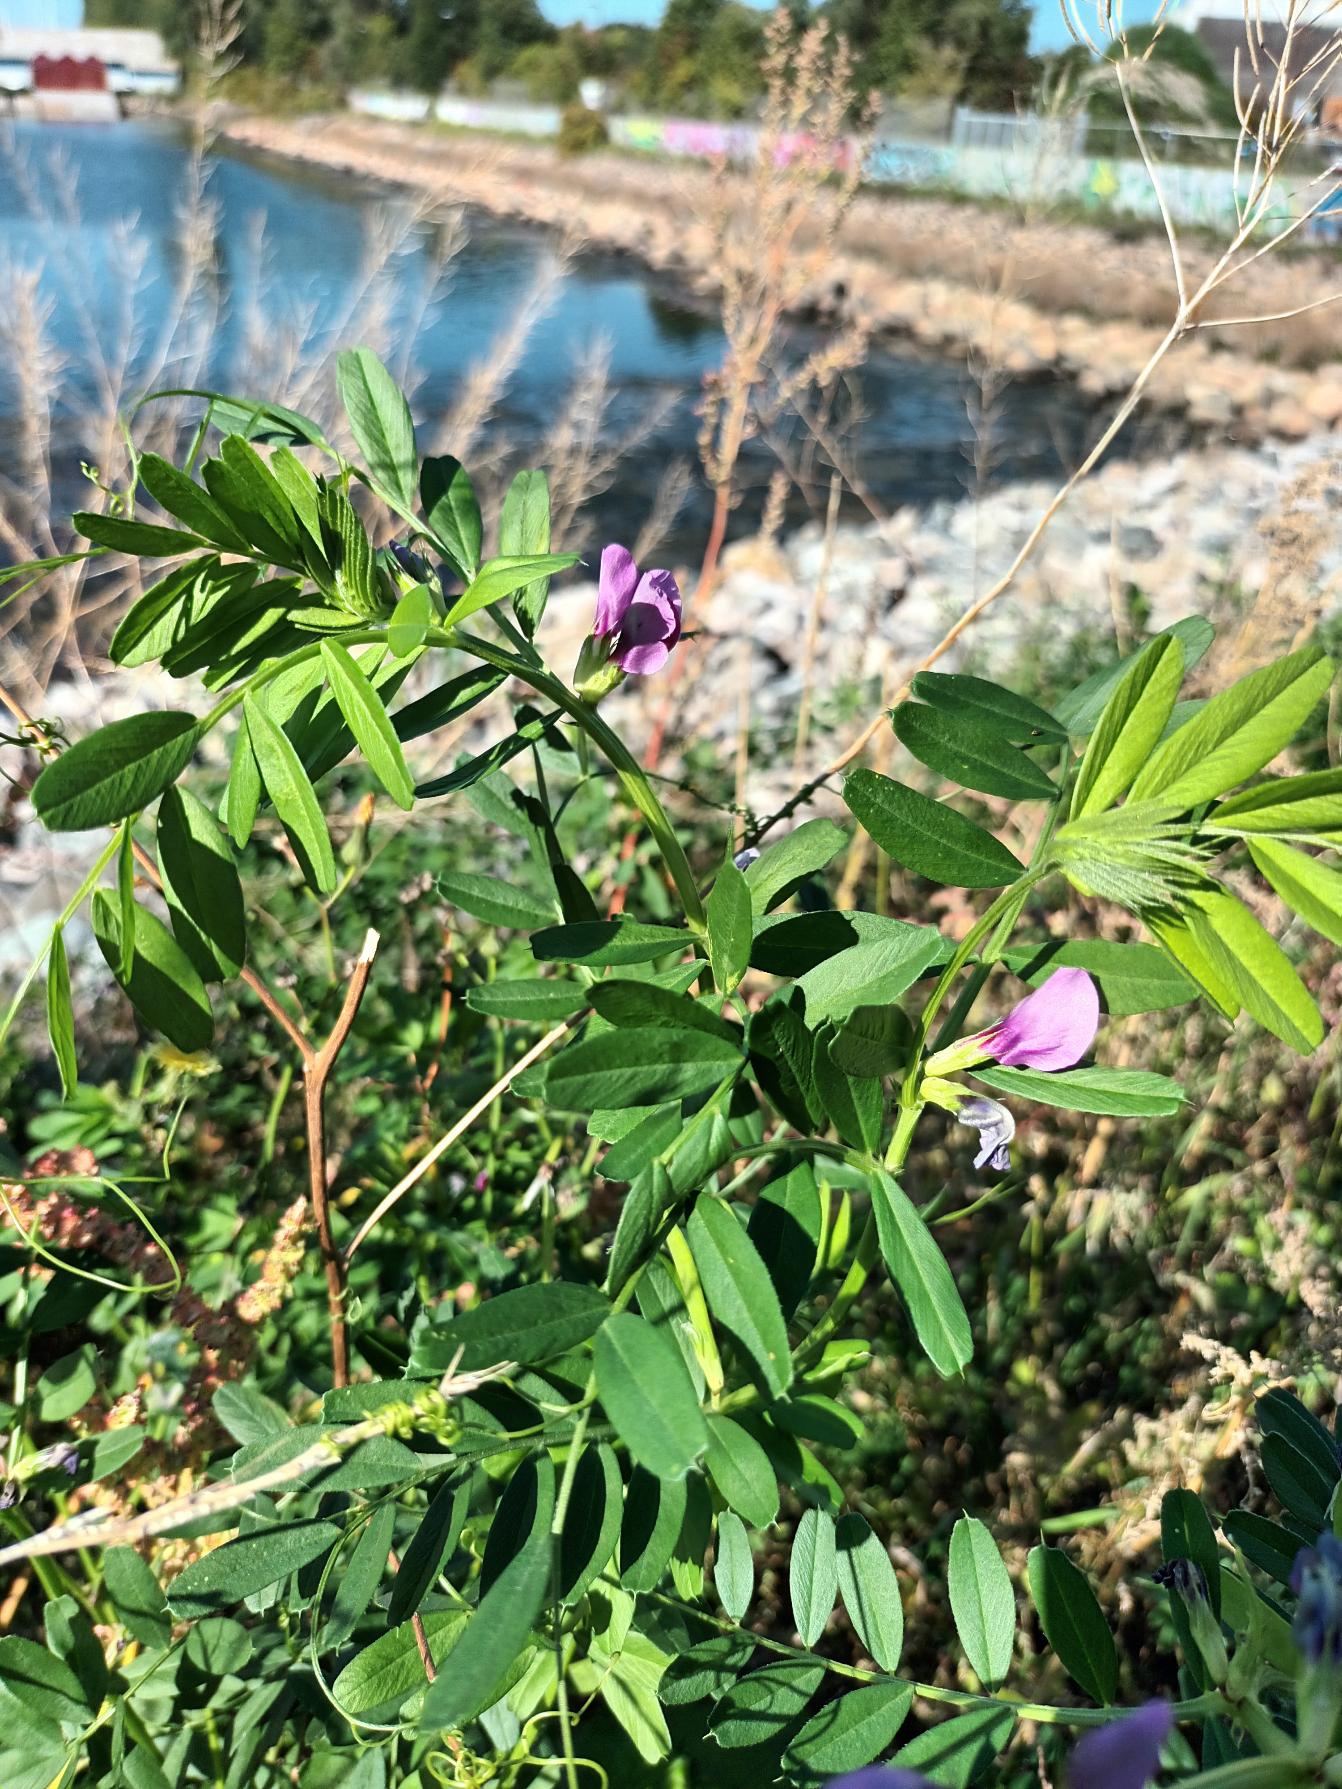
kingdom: Plantae
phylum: Tracheophyta
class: Magnoliopsida
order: Fabales
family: Fabaceae
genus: Vicia
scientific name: Vicia sativa
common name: Foder-vikke (underart)
